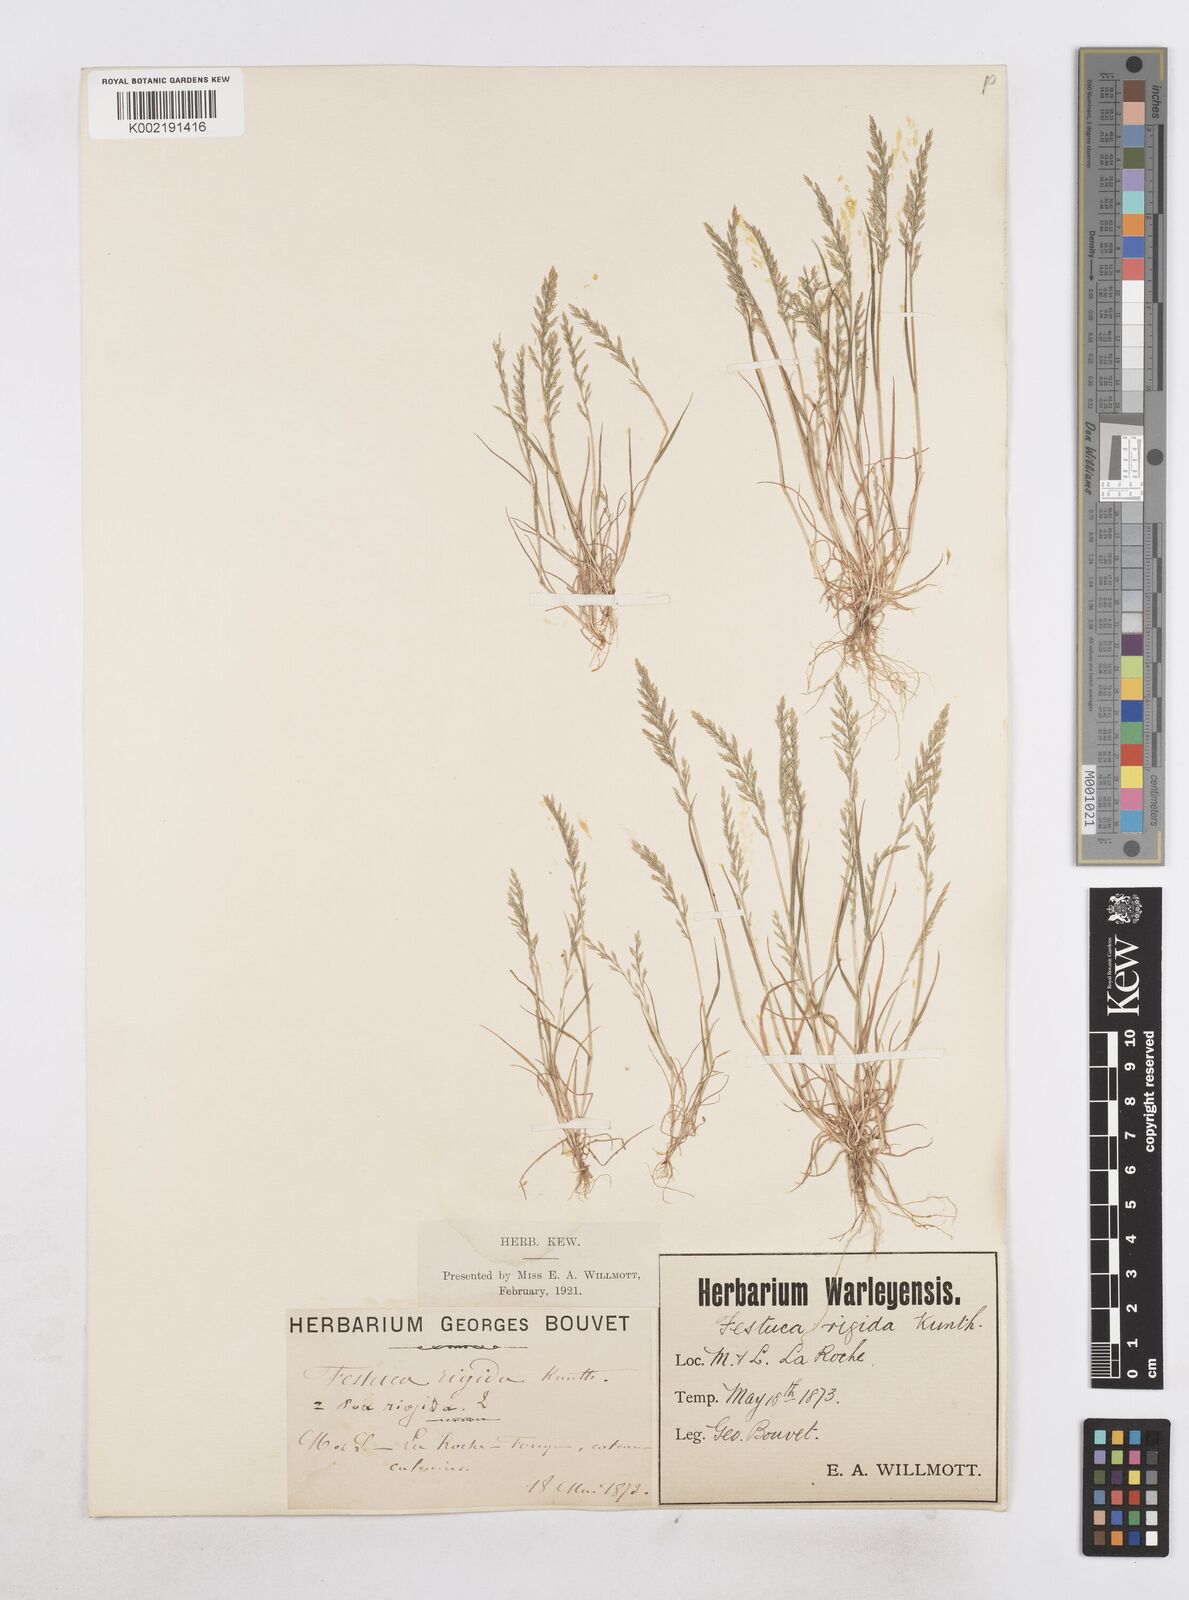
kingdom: Plantae
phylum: Tracheophyta
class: Liliopsida
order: Poales
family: Poaceae
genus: Catapodium
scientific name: Catapodium rigidum
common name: Fern-grass
